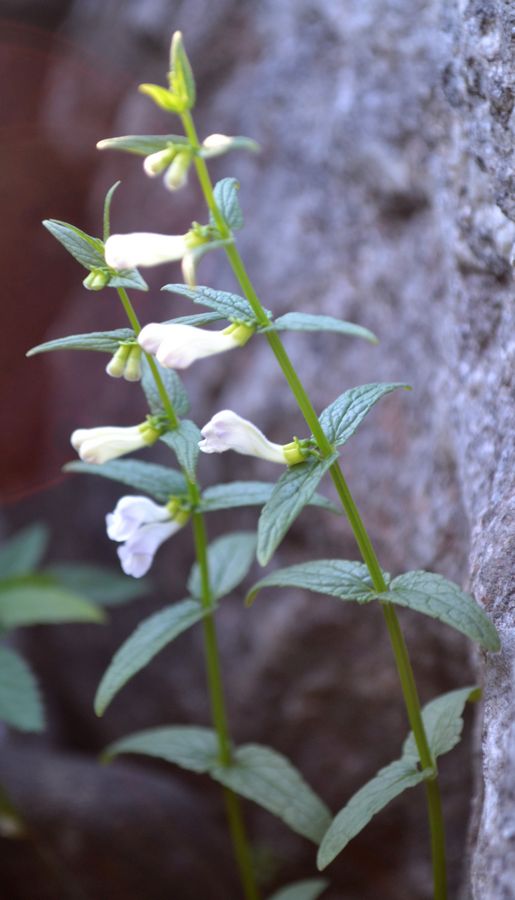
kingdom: Plantae
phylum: Tracheophyta
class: Magnoliopsida
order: Lamiales
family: Lamiaceae
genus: Scutellaria
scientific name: Scutellaria galericulata
